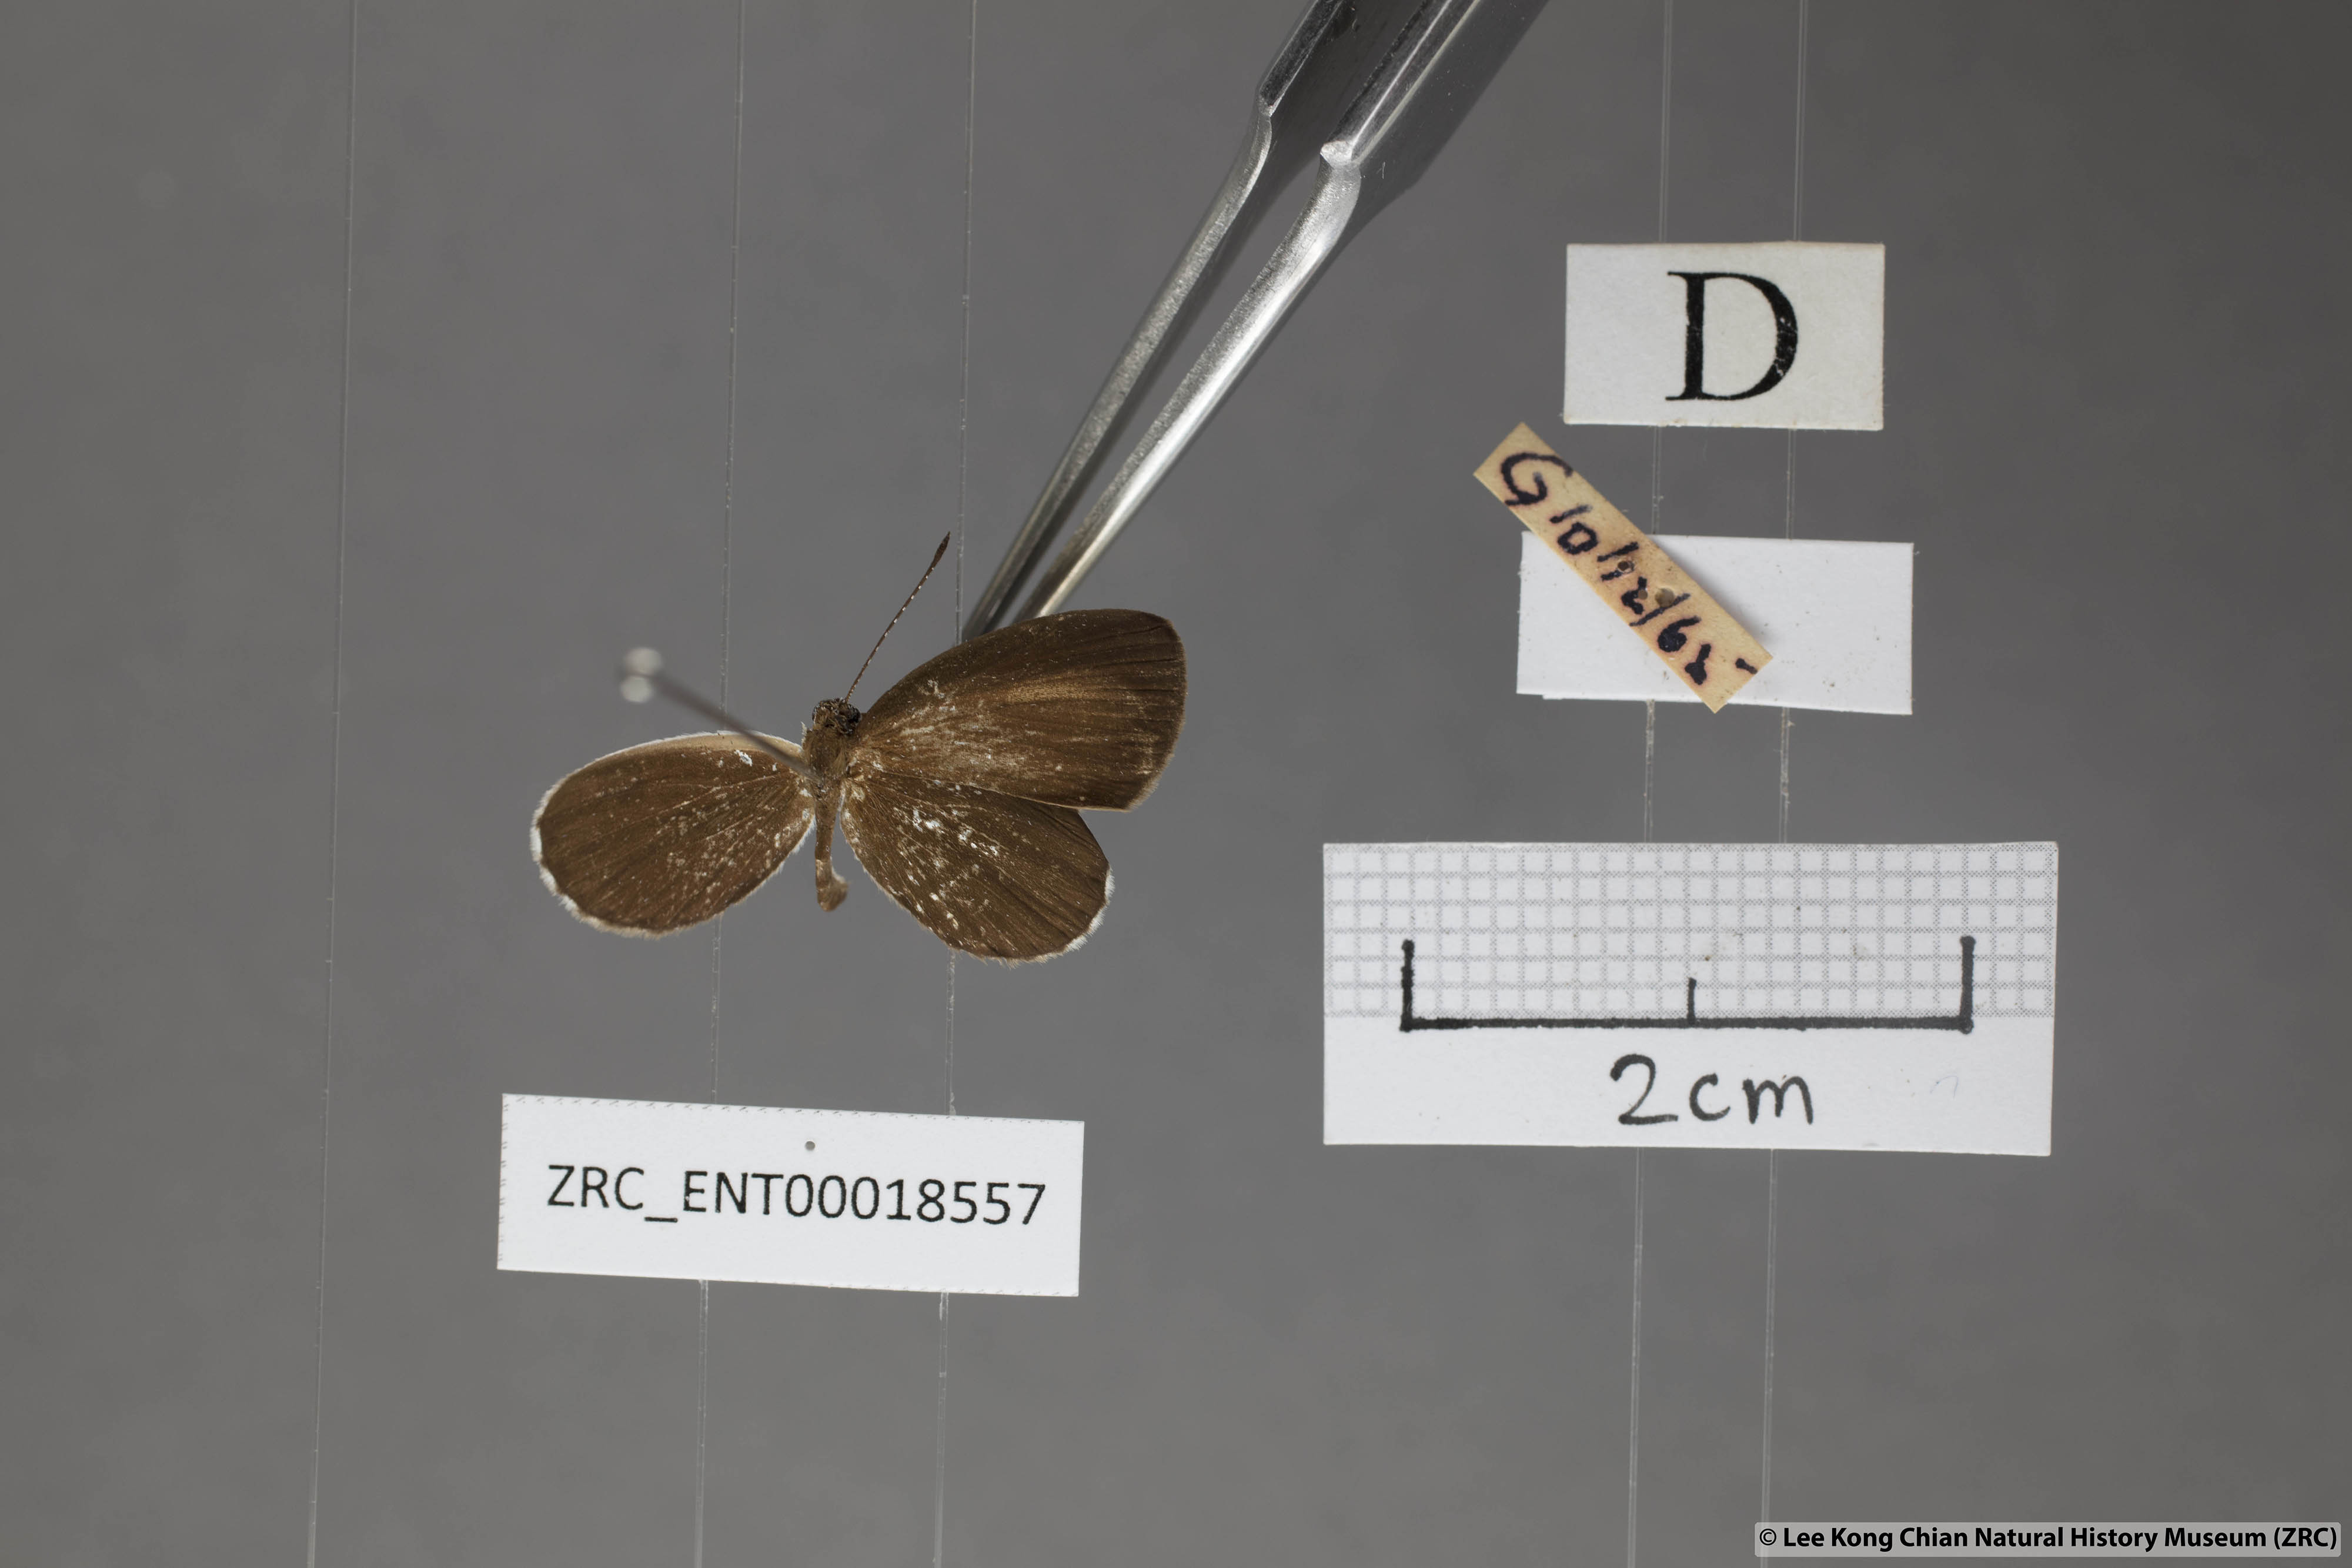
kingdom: Animalia
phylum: Arthropoda
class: Insecta
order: Lepidoptera
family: Lycaenidae
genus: Pithecops
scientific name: Pithecops corvus
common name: Forest quaker
